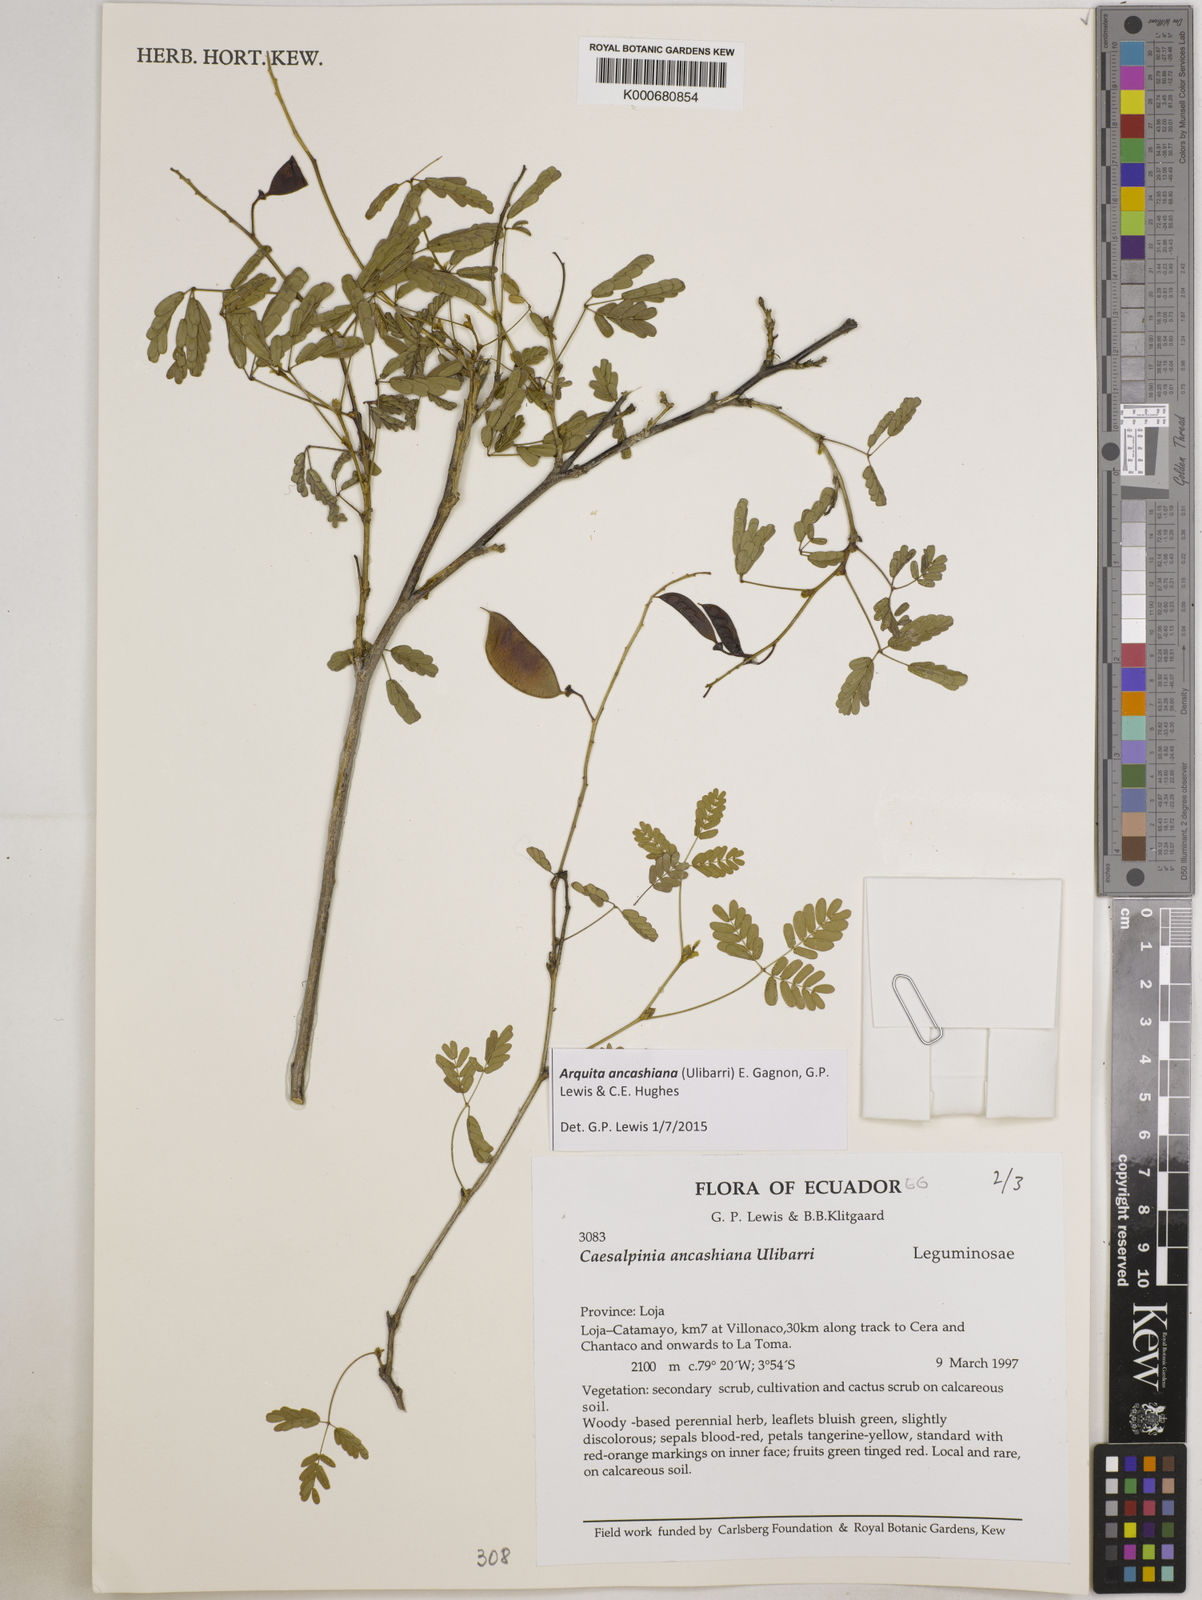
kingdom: Plantae
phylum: Tracheophyta
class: Magnoliopsida
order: Fabales
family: Fabaceae
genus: Arquita
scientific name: Arquita ancashiana
